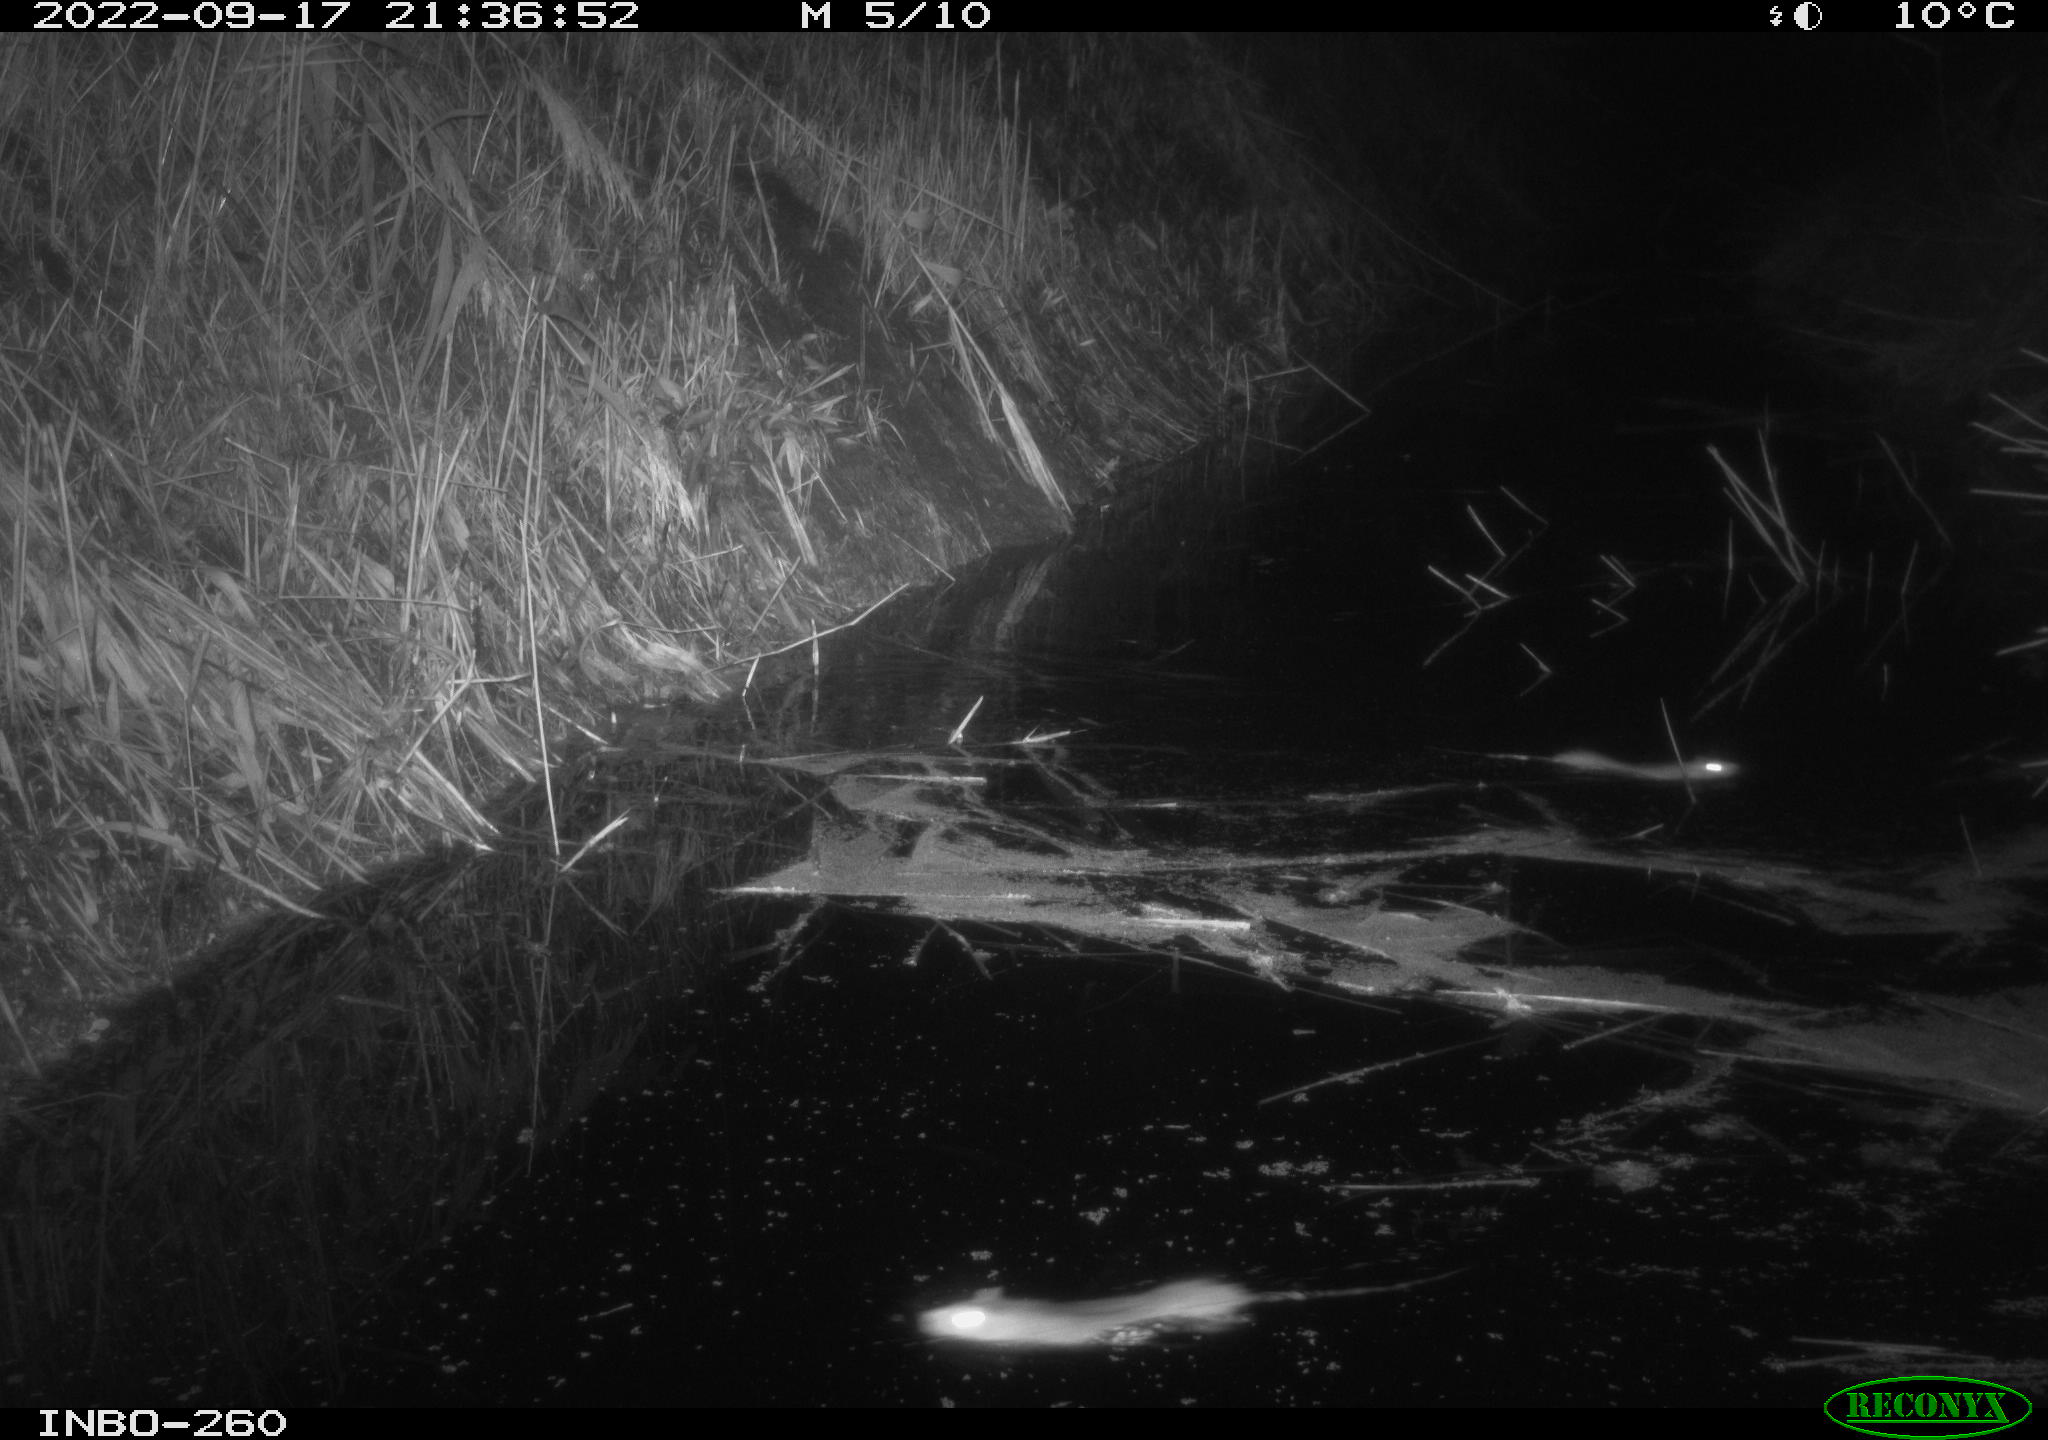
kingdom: Animalia
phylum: Chordata
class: Mammalia
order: Rodentia
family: Muridae
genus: Rattus
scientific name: Rattus norvegicus
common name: Brown rat
